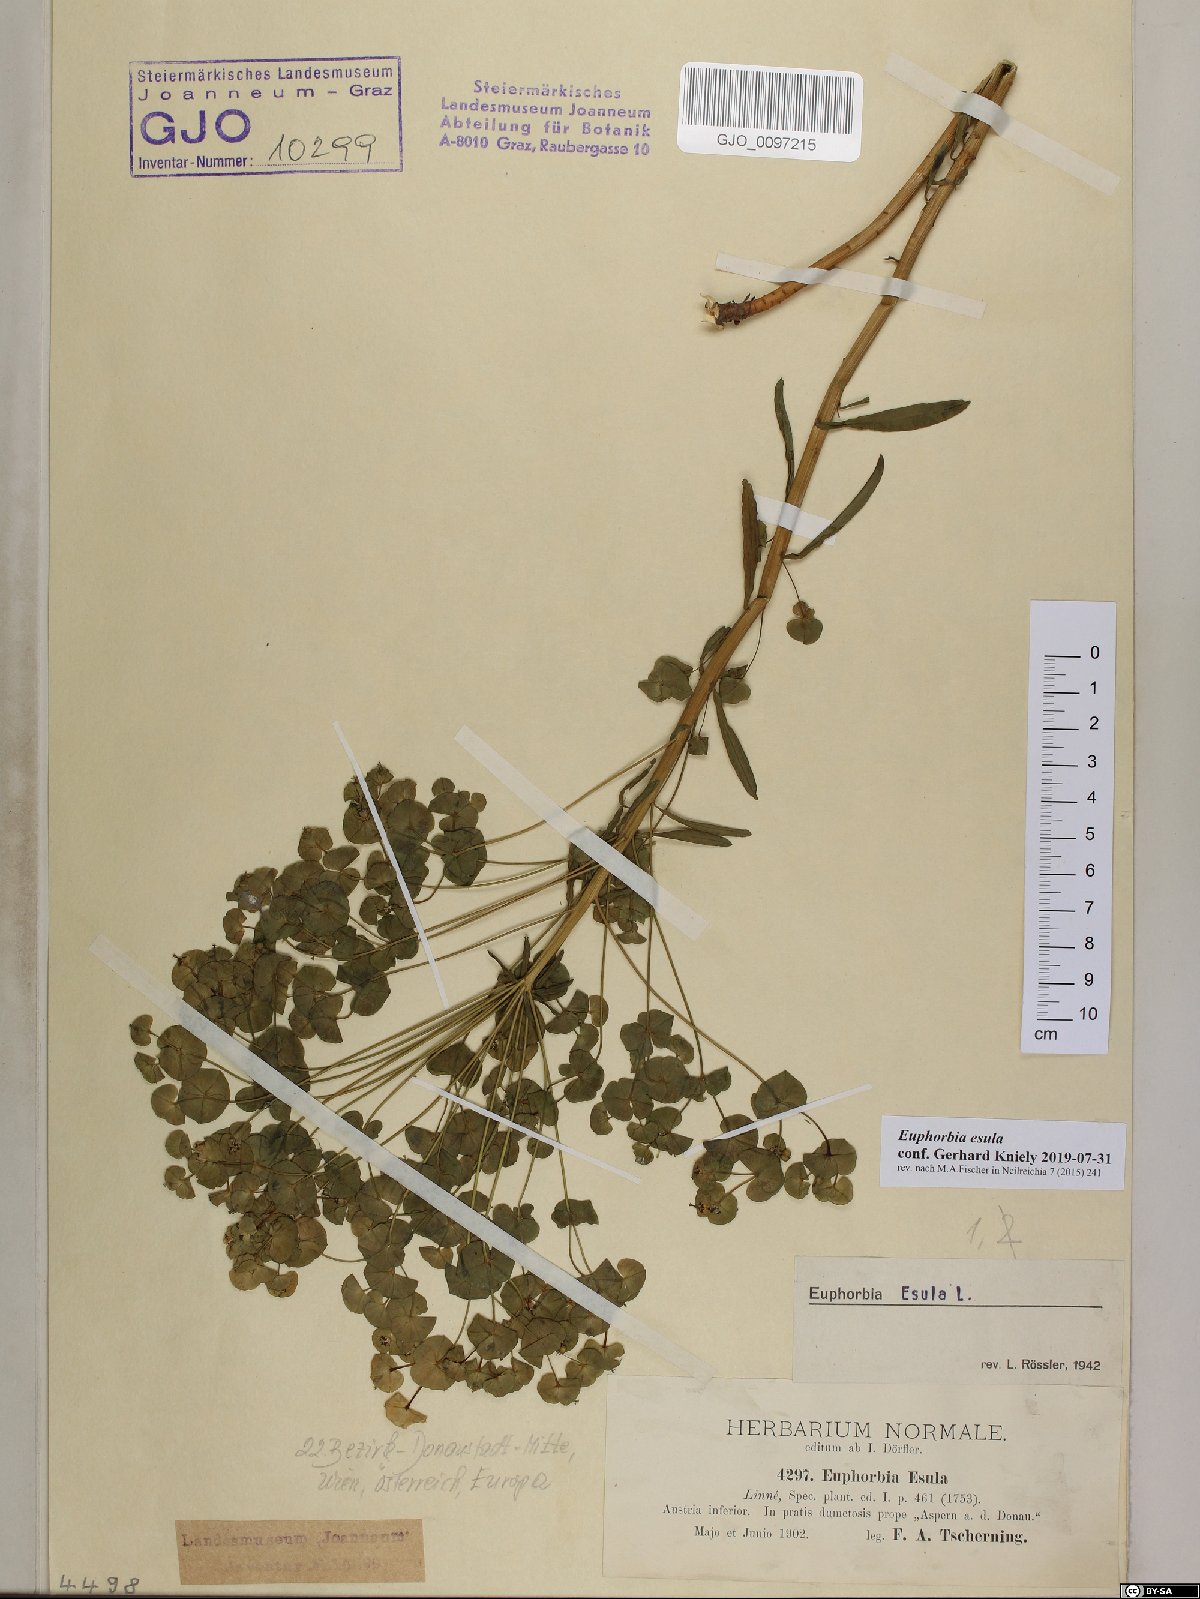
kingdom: Plantae
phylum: Tracheophyta
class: Magnoliopsida
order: Malpighiales
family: Euphorbiaceae
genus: Euphorbia
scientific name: Euphorbia esula
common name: Leafy spurge
